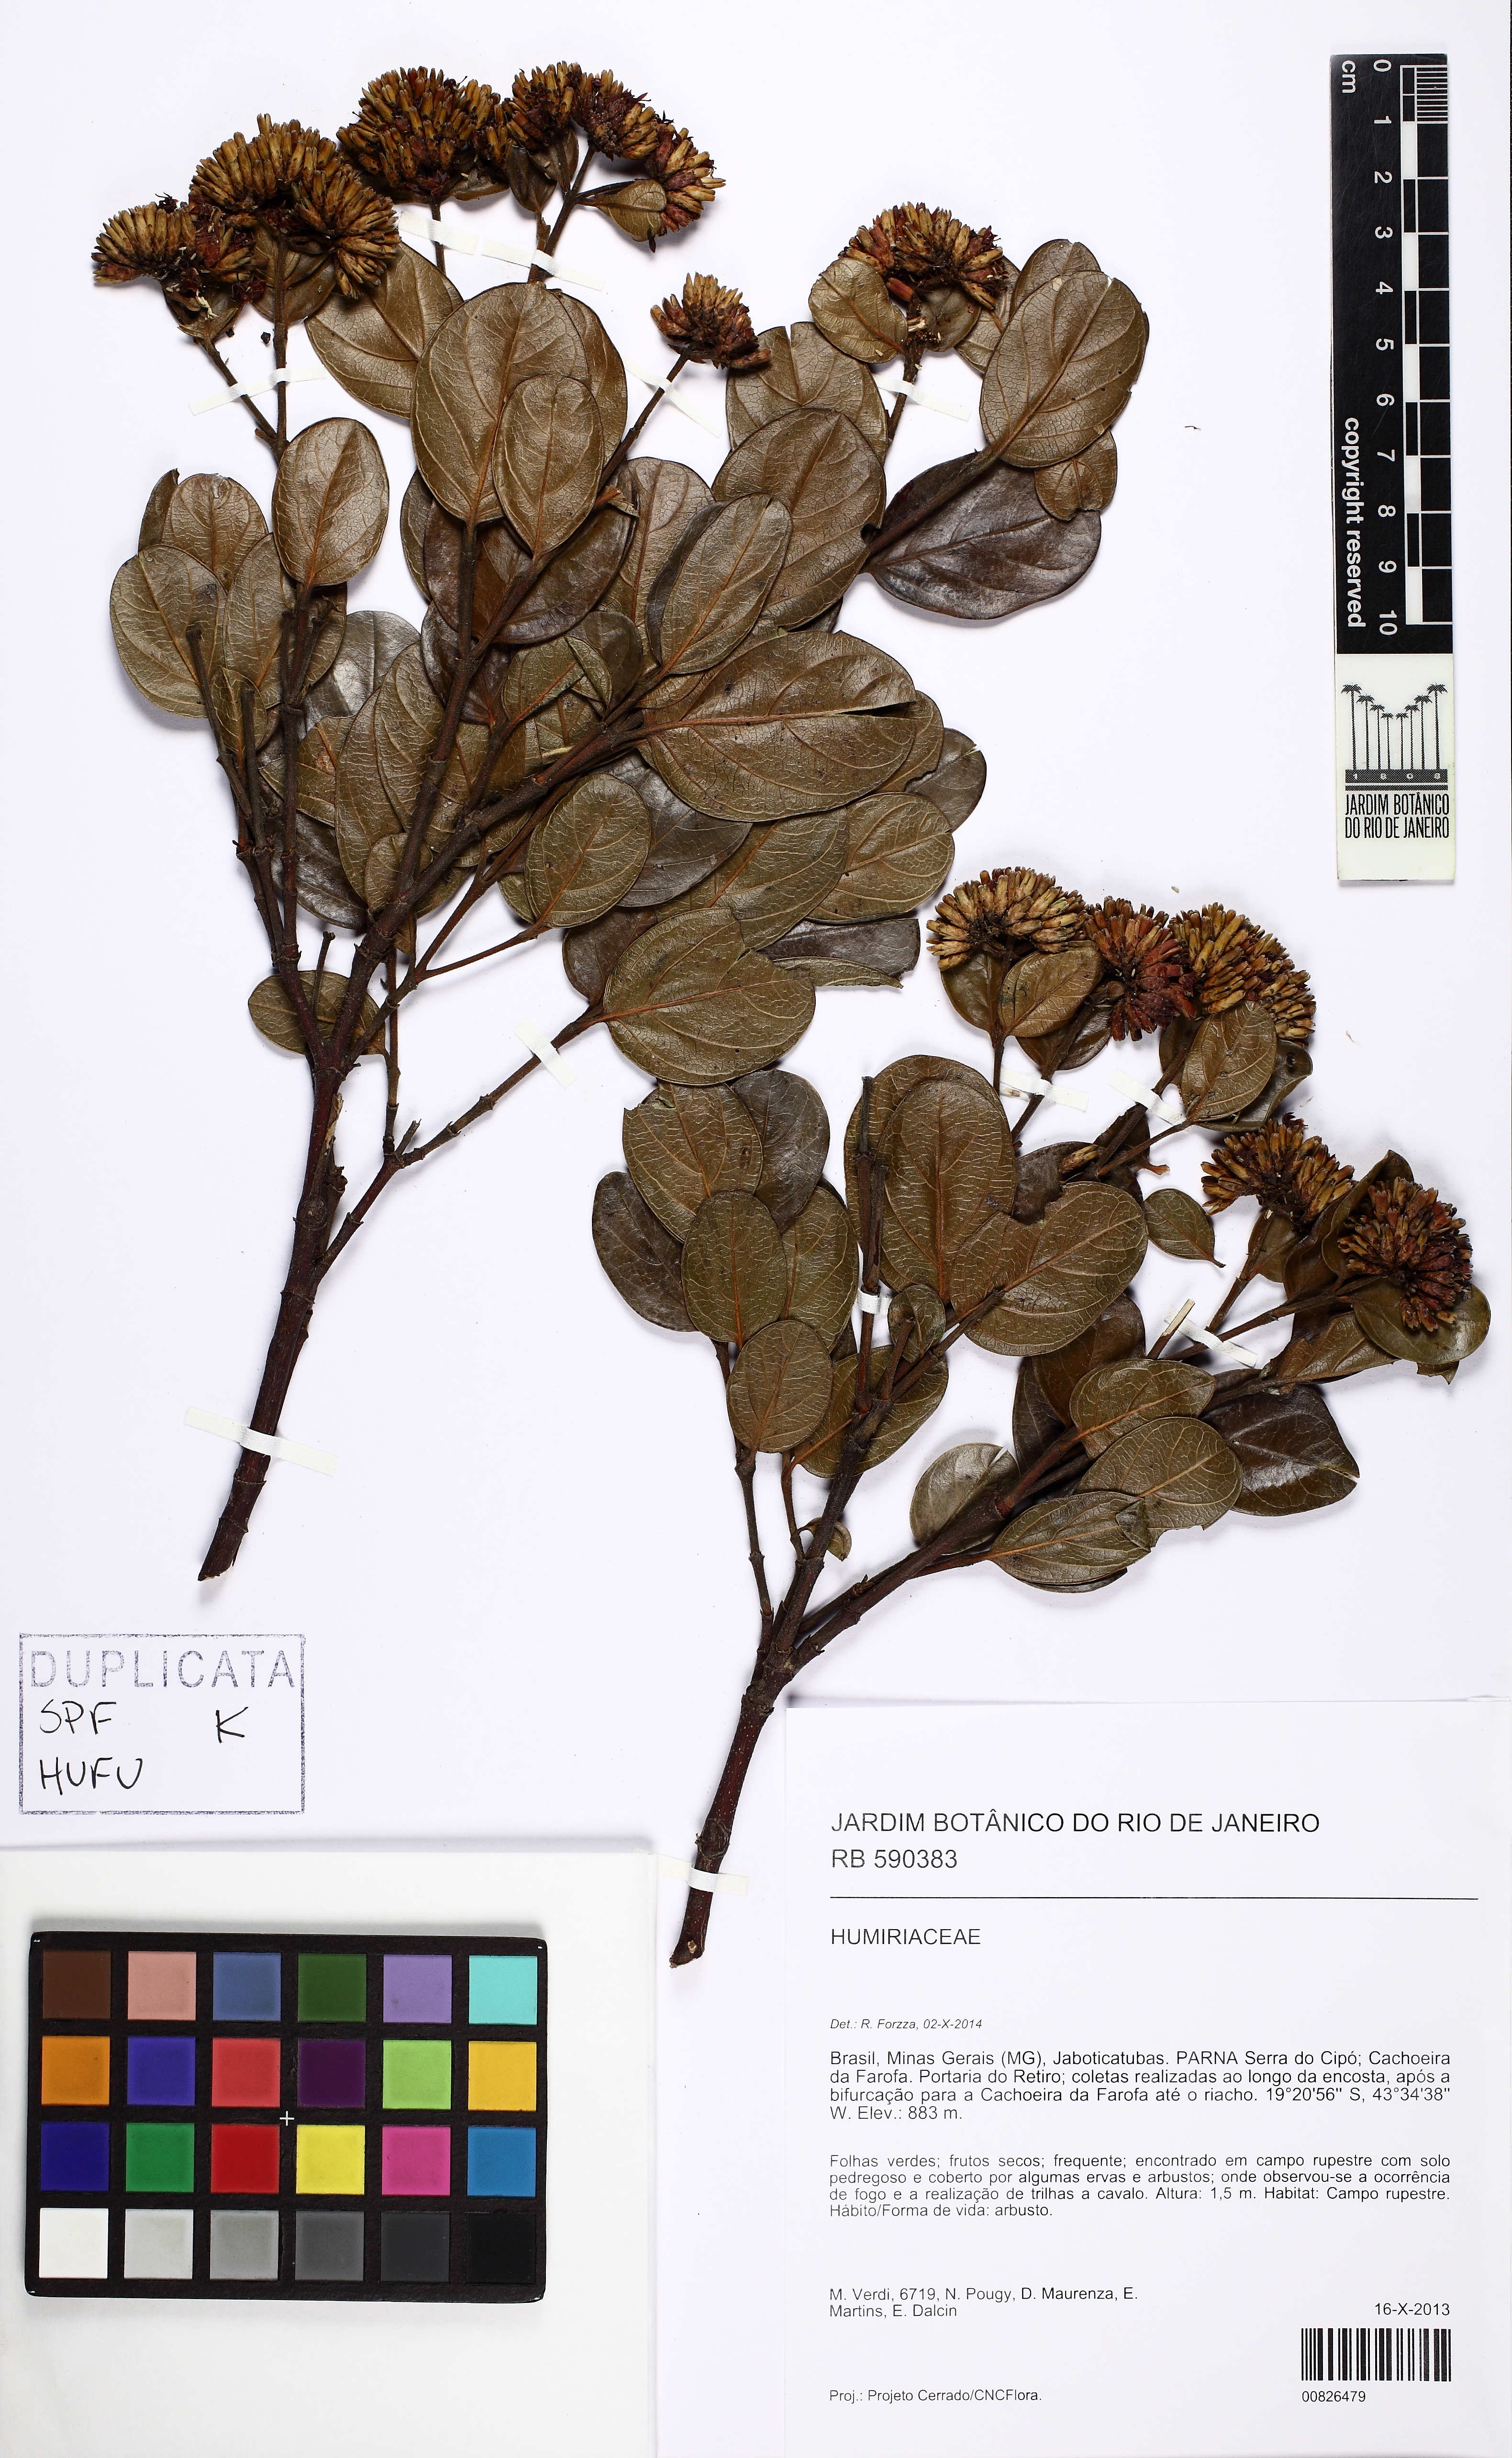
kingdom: Plantae
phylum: Tracheophyta
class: Magnoliopsida
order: Gentianales
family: Loganiaceae
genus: Antonia
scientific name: Antonia ovata
